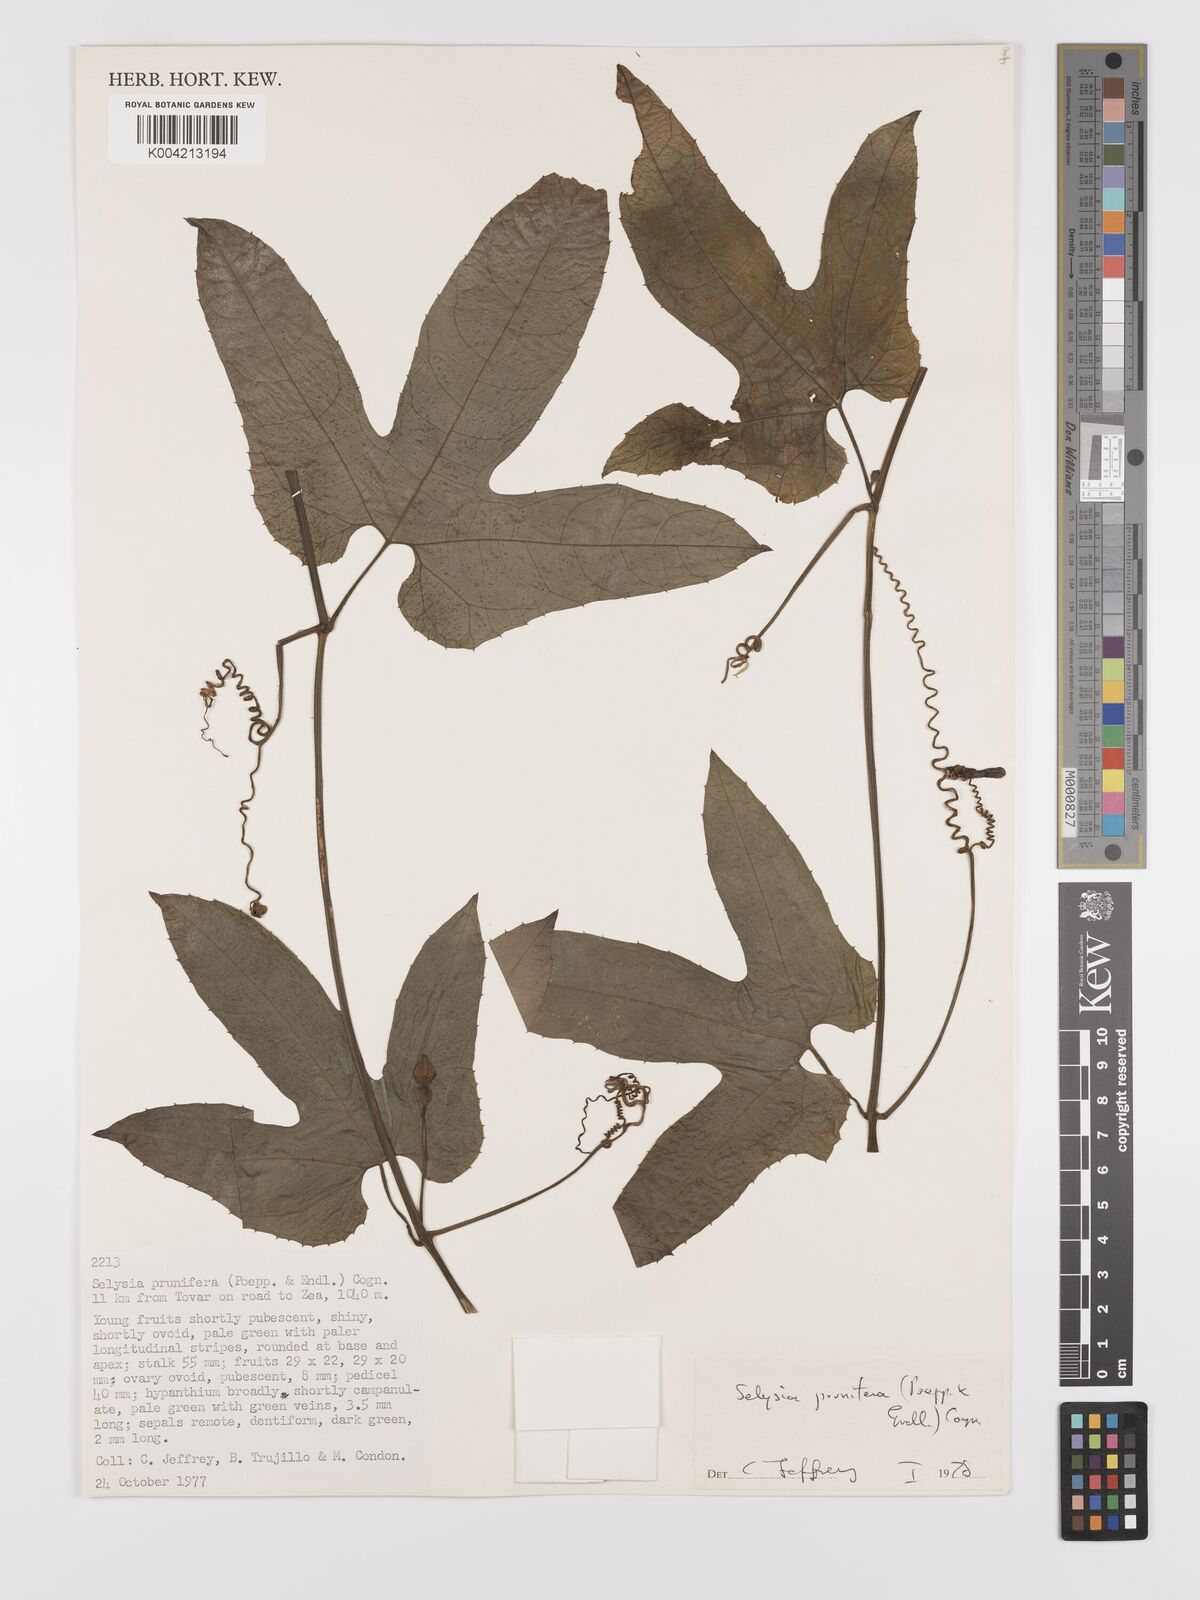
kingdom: Plantae
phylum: Tracheophyta
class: Magnoliopsida
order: Cucurbitales
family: Cucurbitaceae
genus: Cayaponia
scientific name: Cayaponia prunifera
